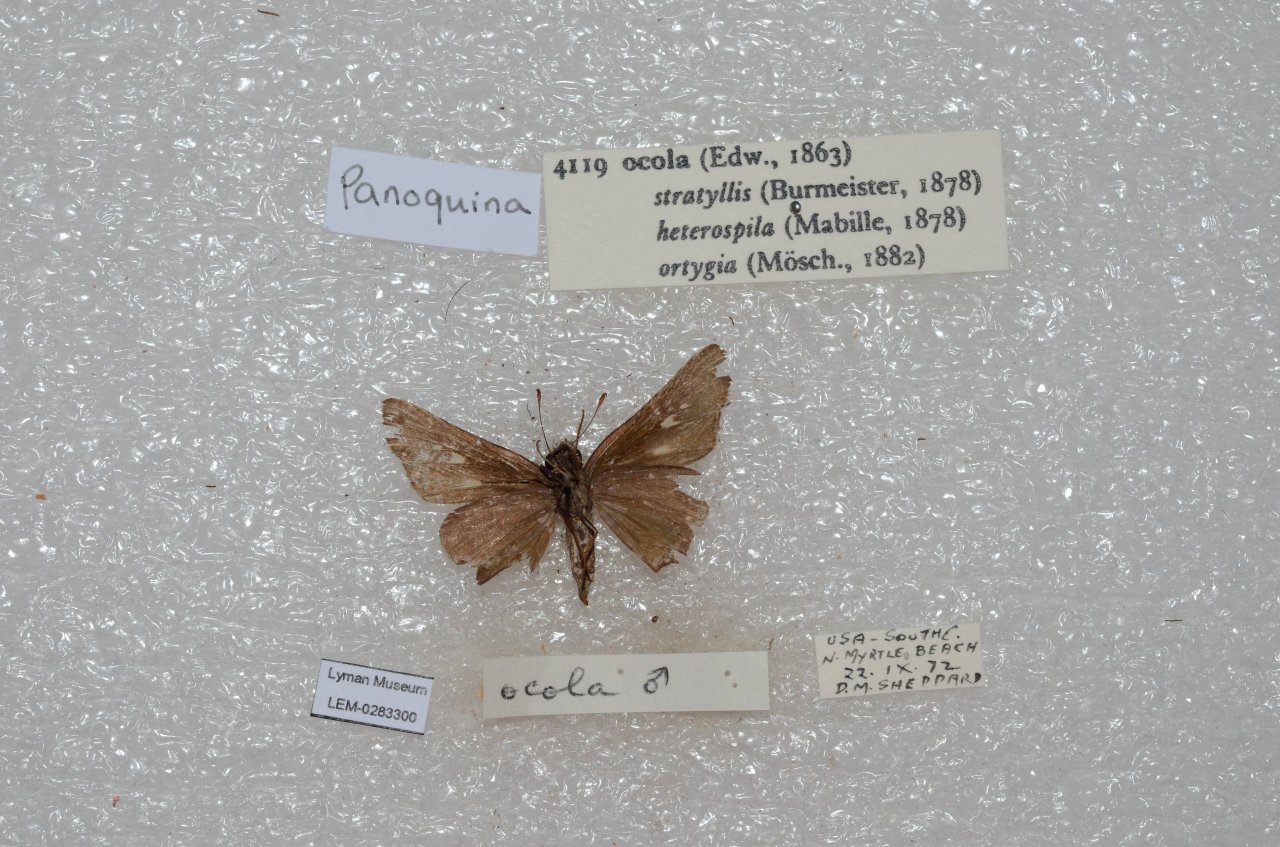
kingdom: Animalia
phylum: Arthropoda
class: Insecta
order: Lepidoptera
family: Hesperiidae
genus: Panoquina
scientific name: Panoquina ocola
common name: Ocola Skipper
